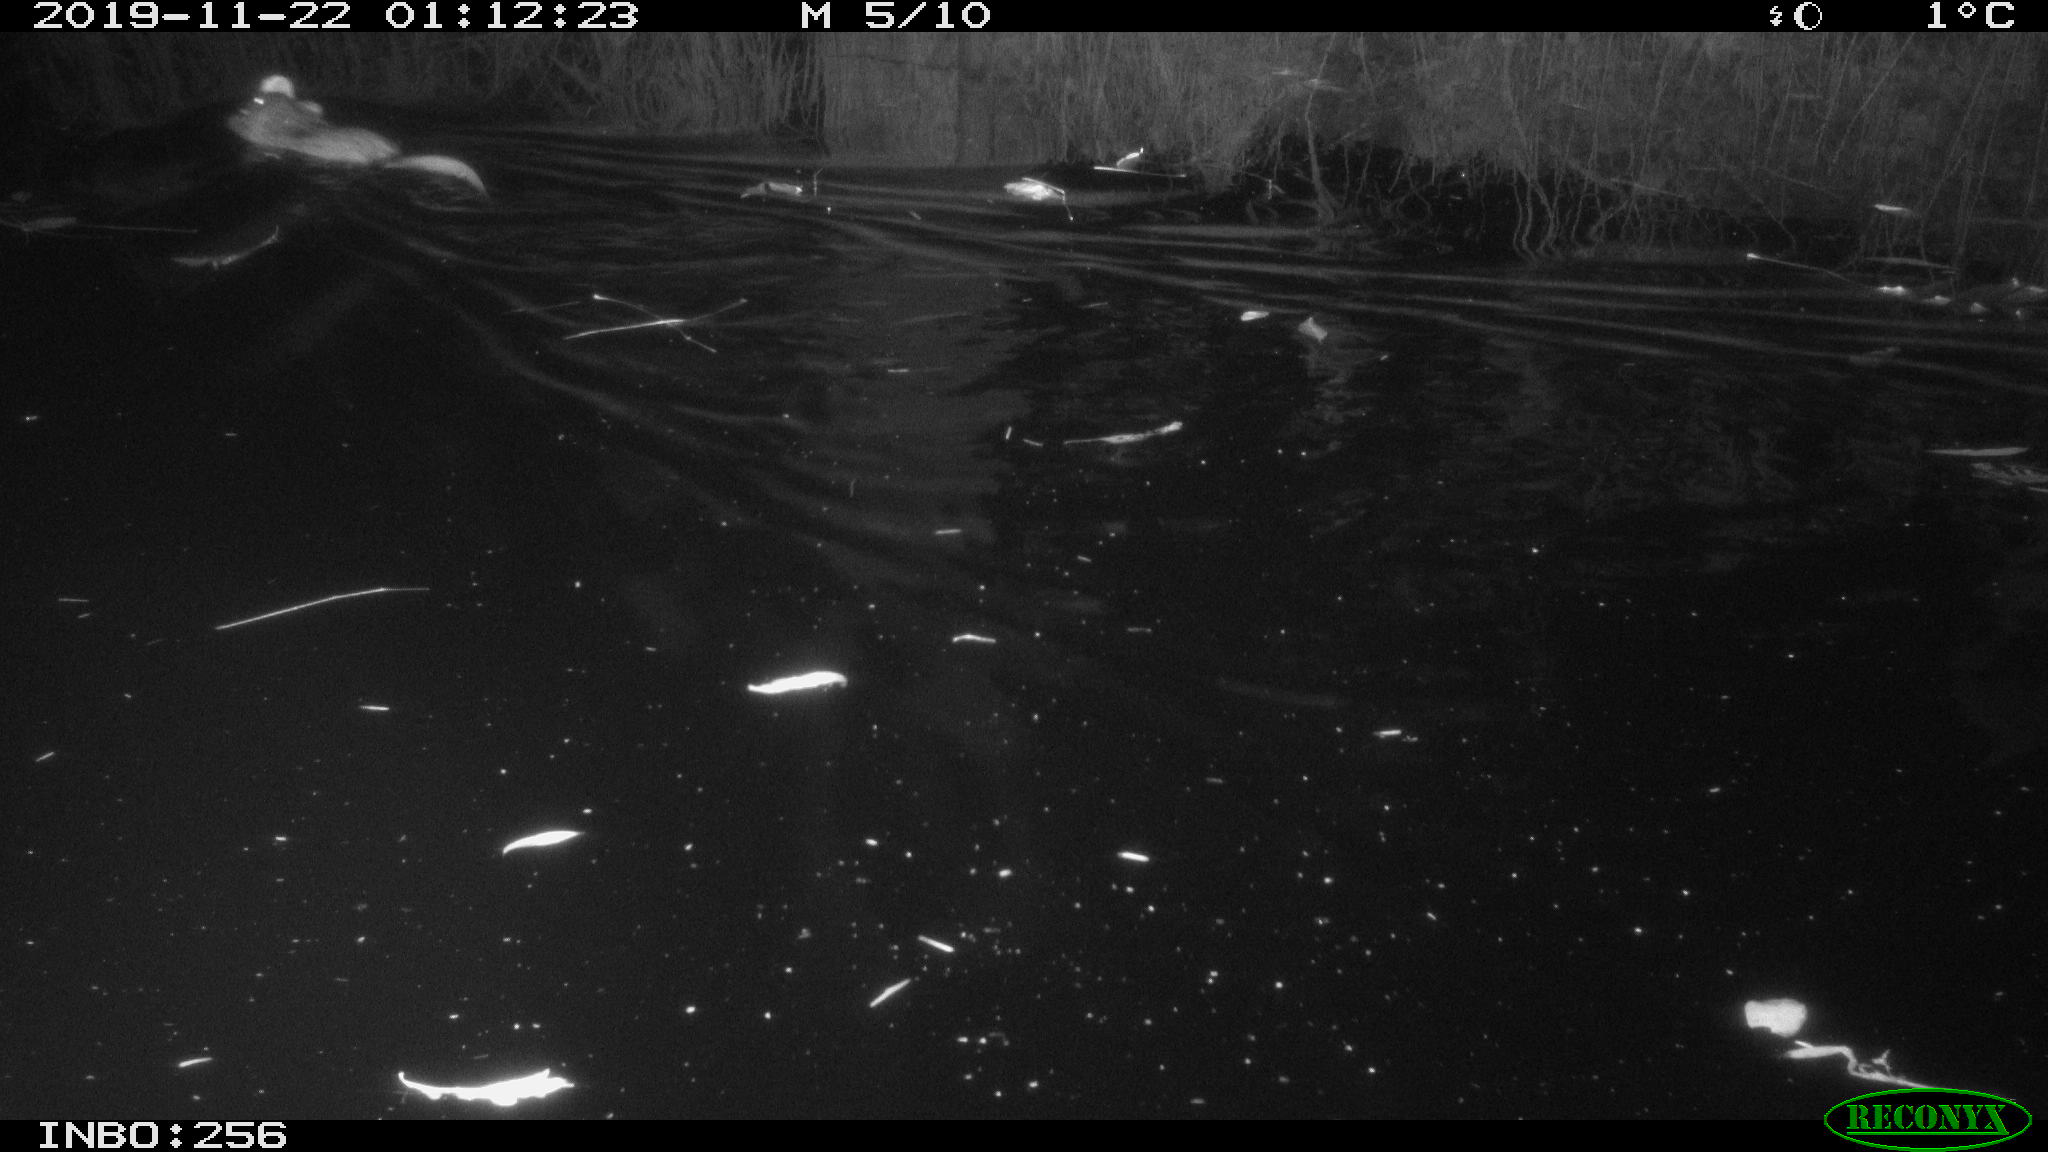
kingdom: Animalia
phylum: Chordata
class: Mammalia
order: Rodentia
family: Cricetidae
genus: Ondatra
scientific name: Ondatra zibethicus
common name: Muskrat
